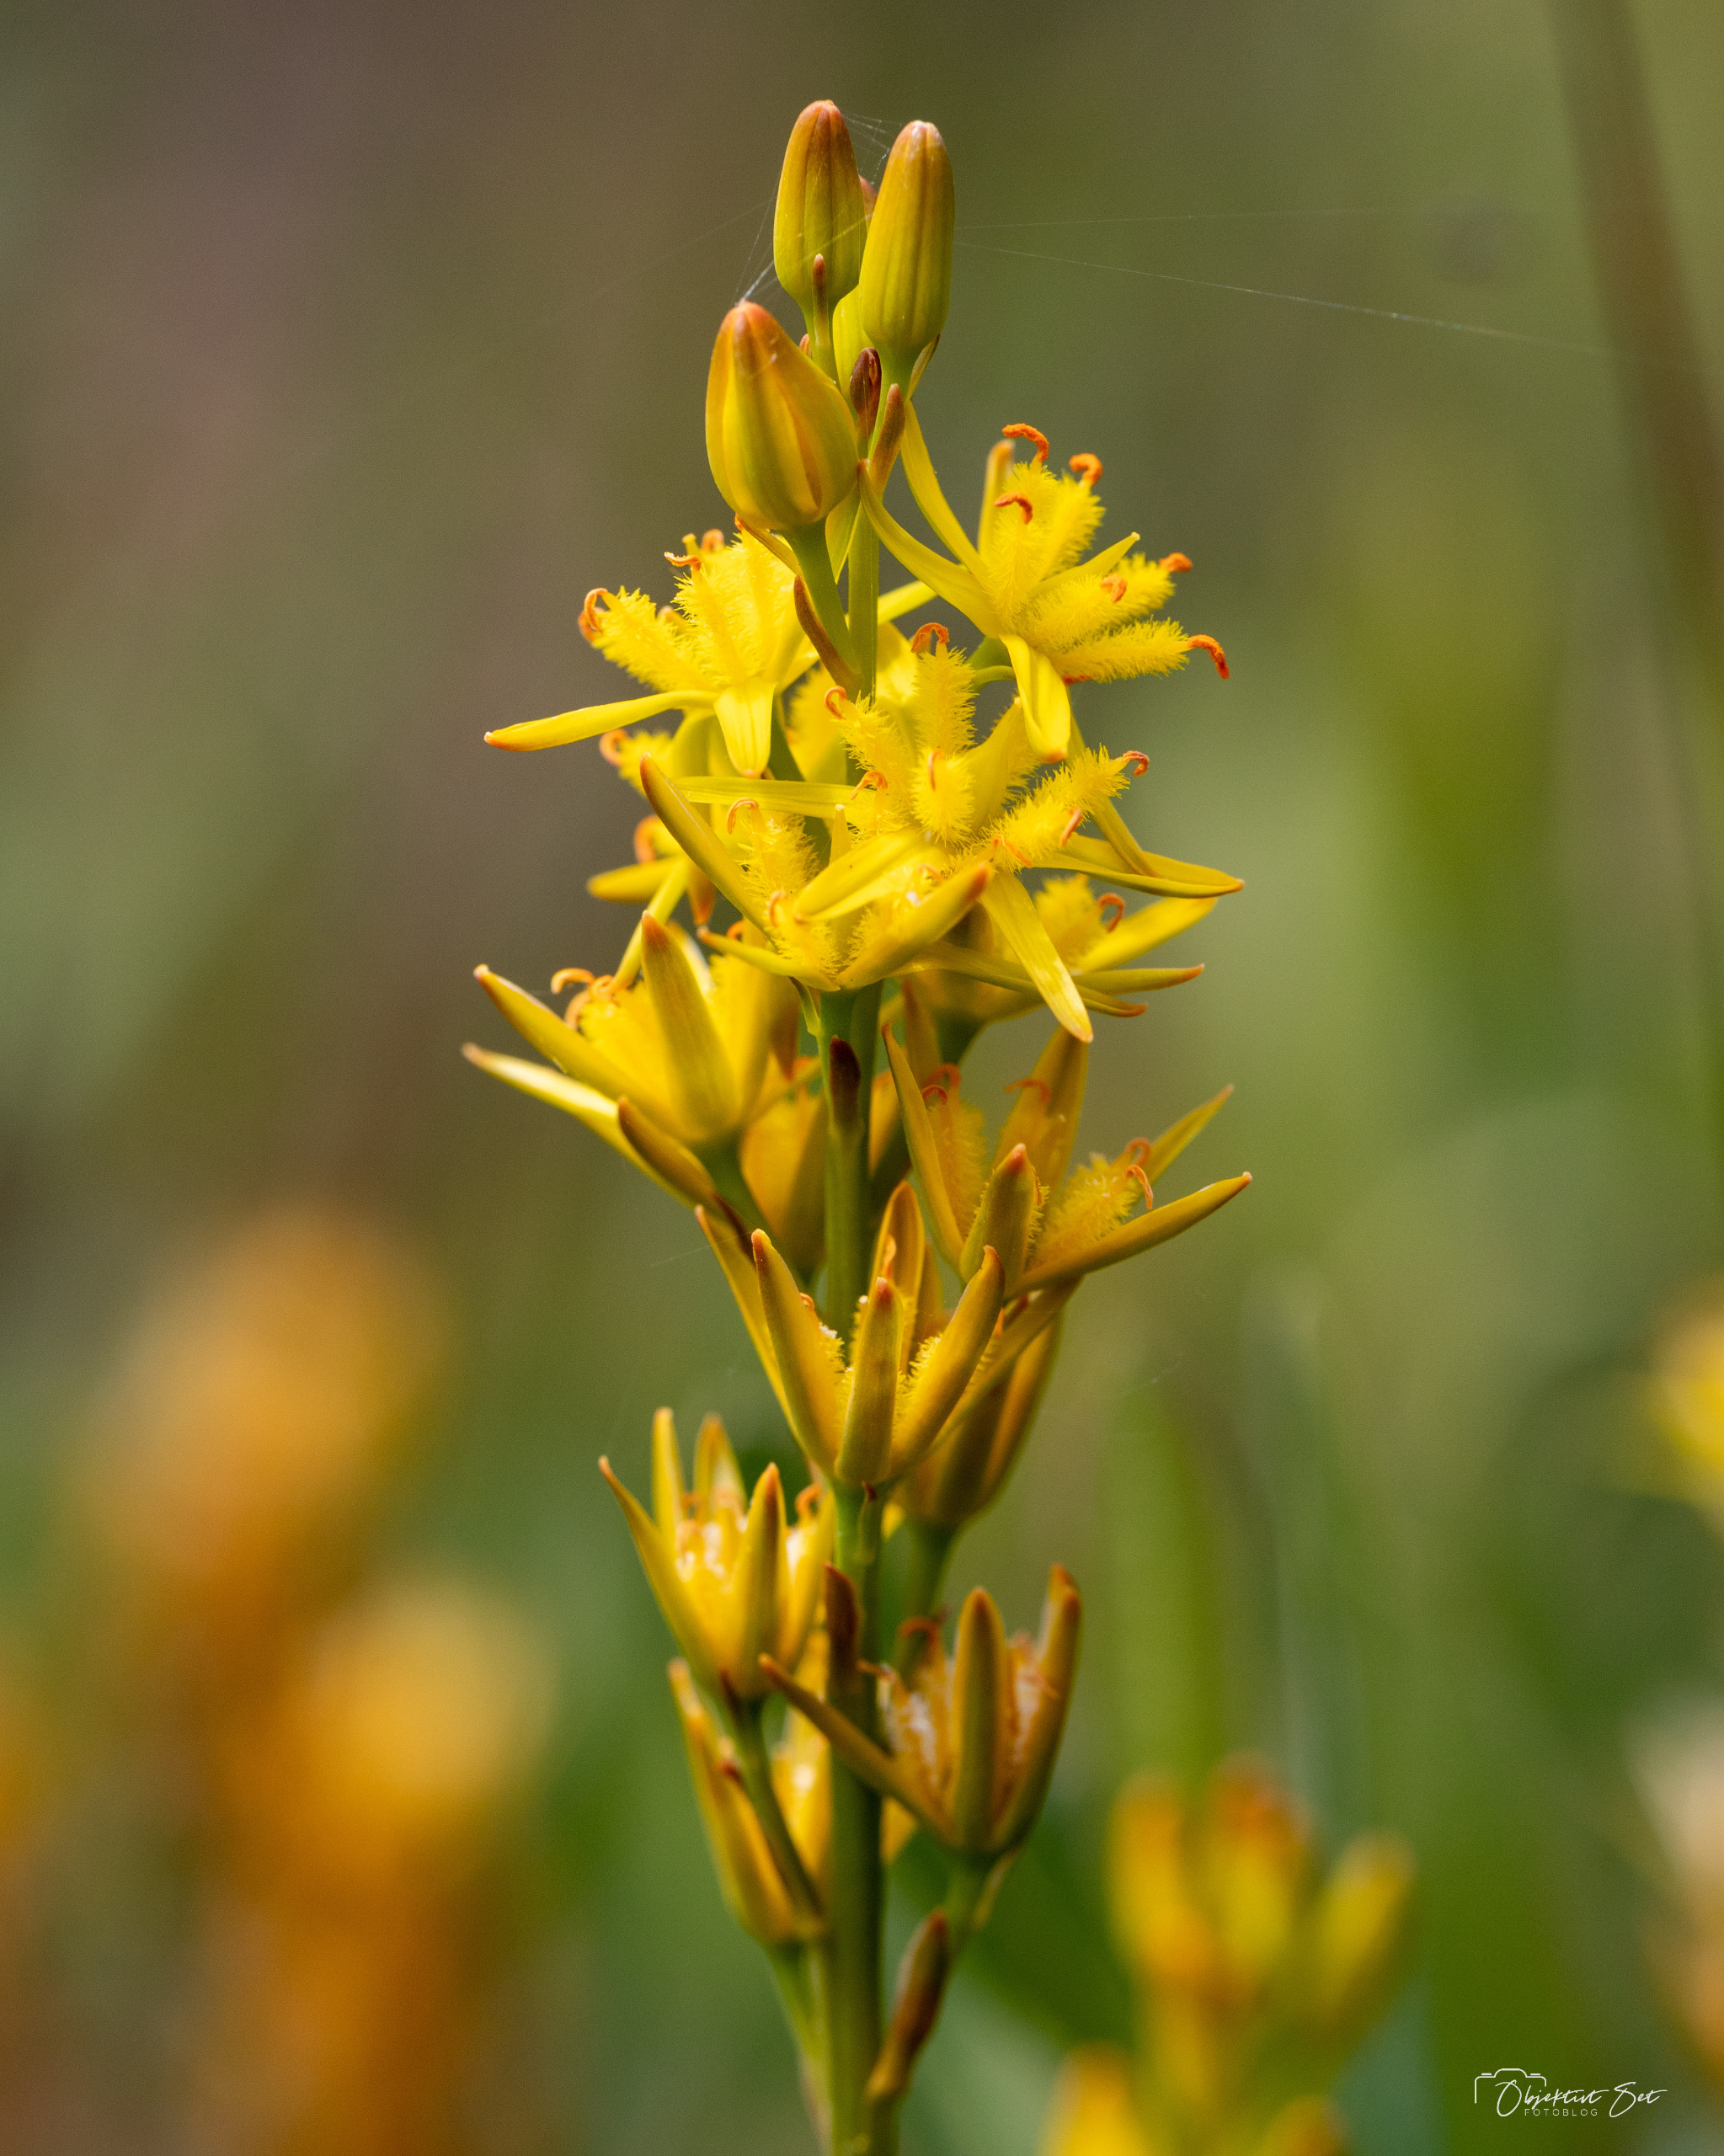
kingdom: Plantae
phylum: Tracheophyta
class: Liliopsida
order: Dioscoreales
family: Nartheciaceae
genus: Narthecium
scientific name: Narthecium ossifragum
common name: Benbræk
